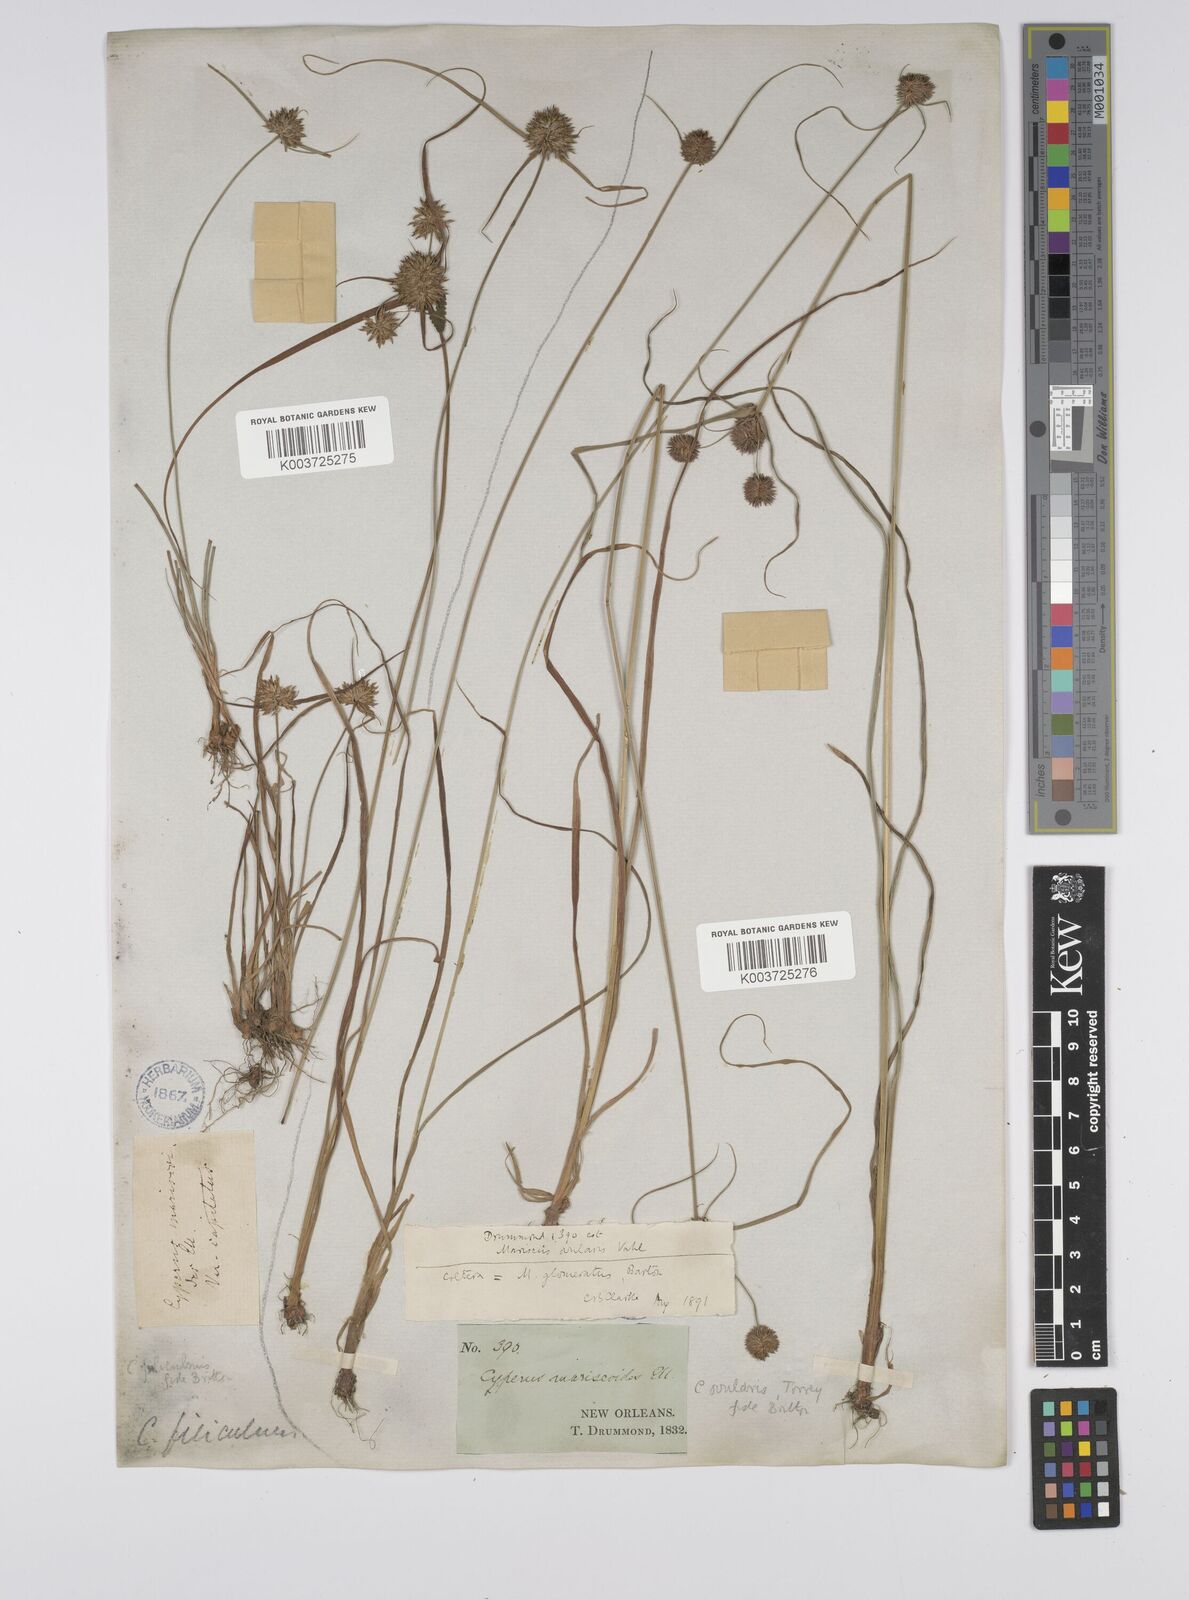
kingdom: Plantae
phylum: Tracheophyta
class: Liliopsida
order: Poales
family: Cyperaceae
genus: Cyperus
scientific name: Cyperus filiculmis
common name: Slender sand sedge
